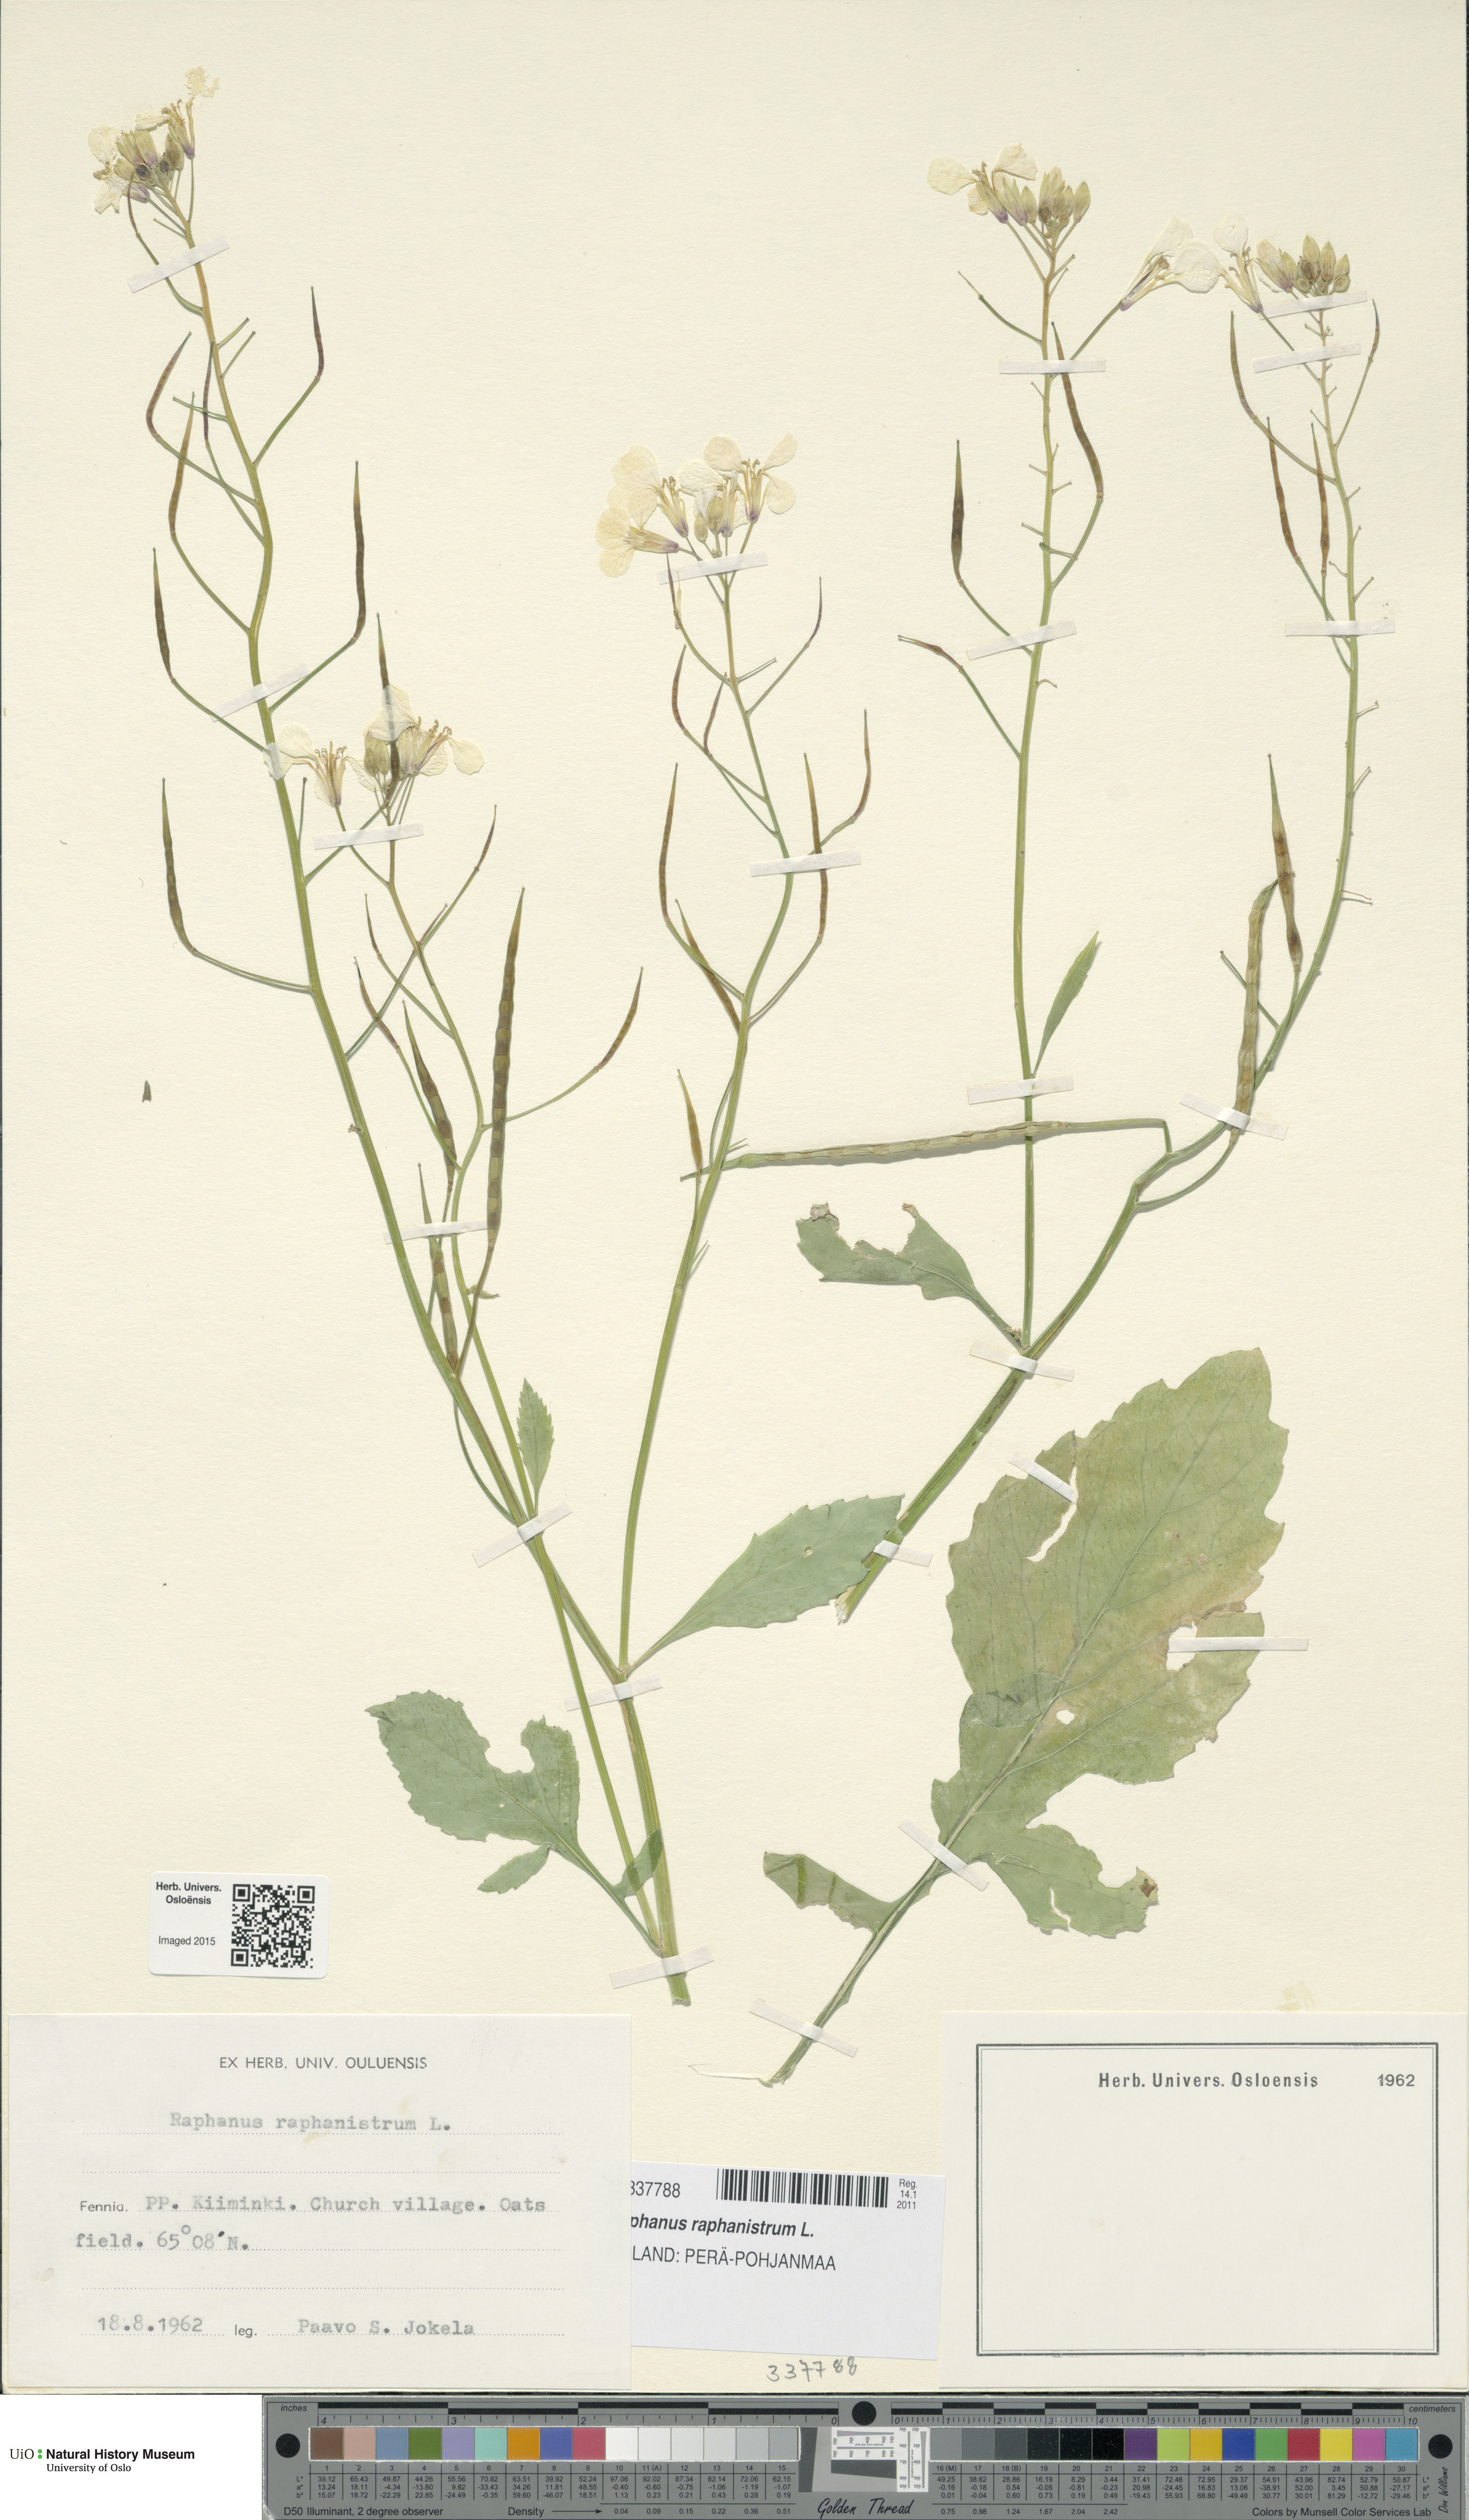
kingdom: Plantae
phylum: Tracheophyta
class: Magnoliopsida
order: Brassicales
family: Brassicaceae
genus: Raphanus
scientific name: Raphanus raphanistrum
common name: Wild radish
